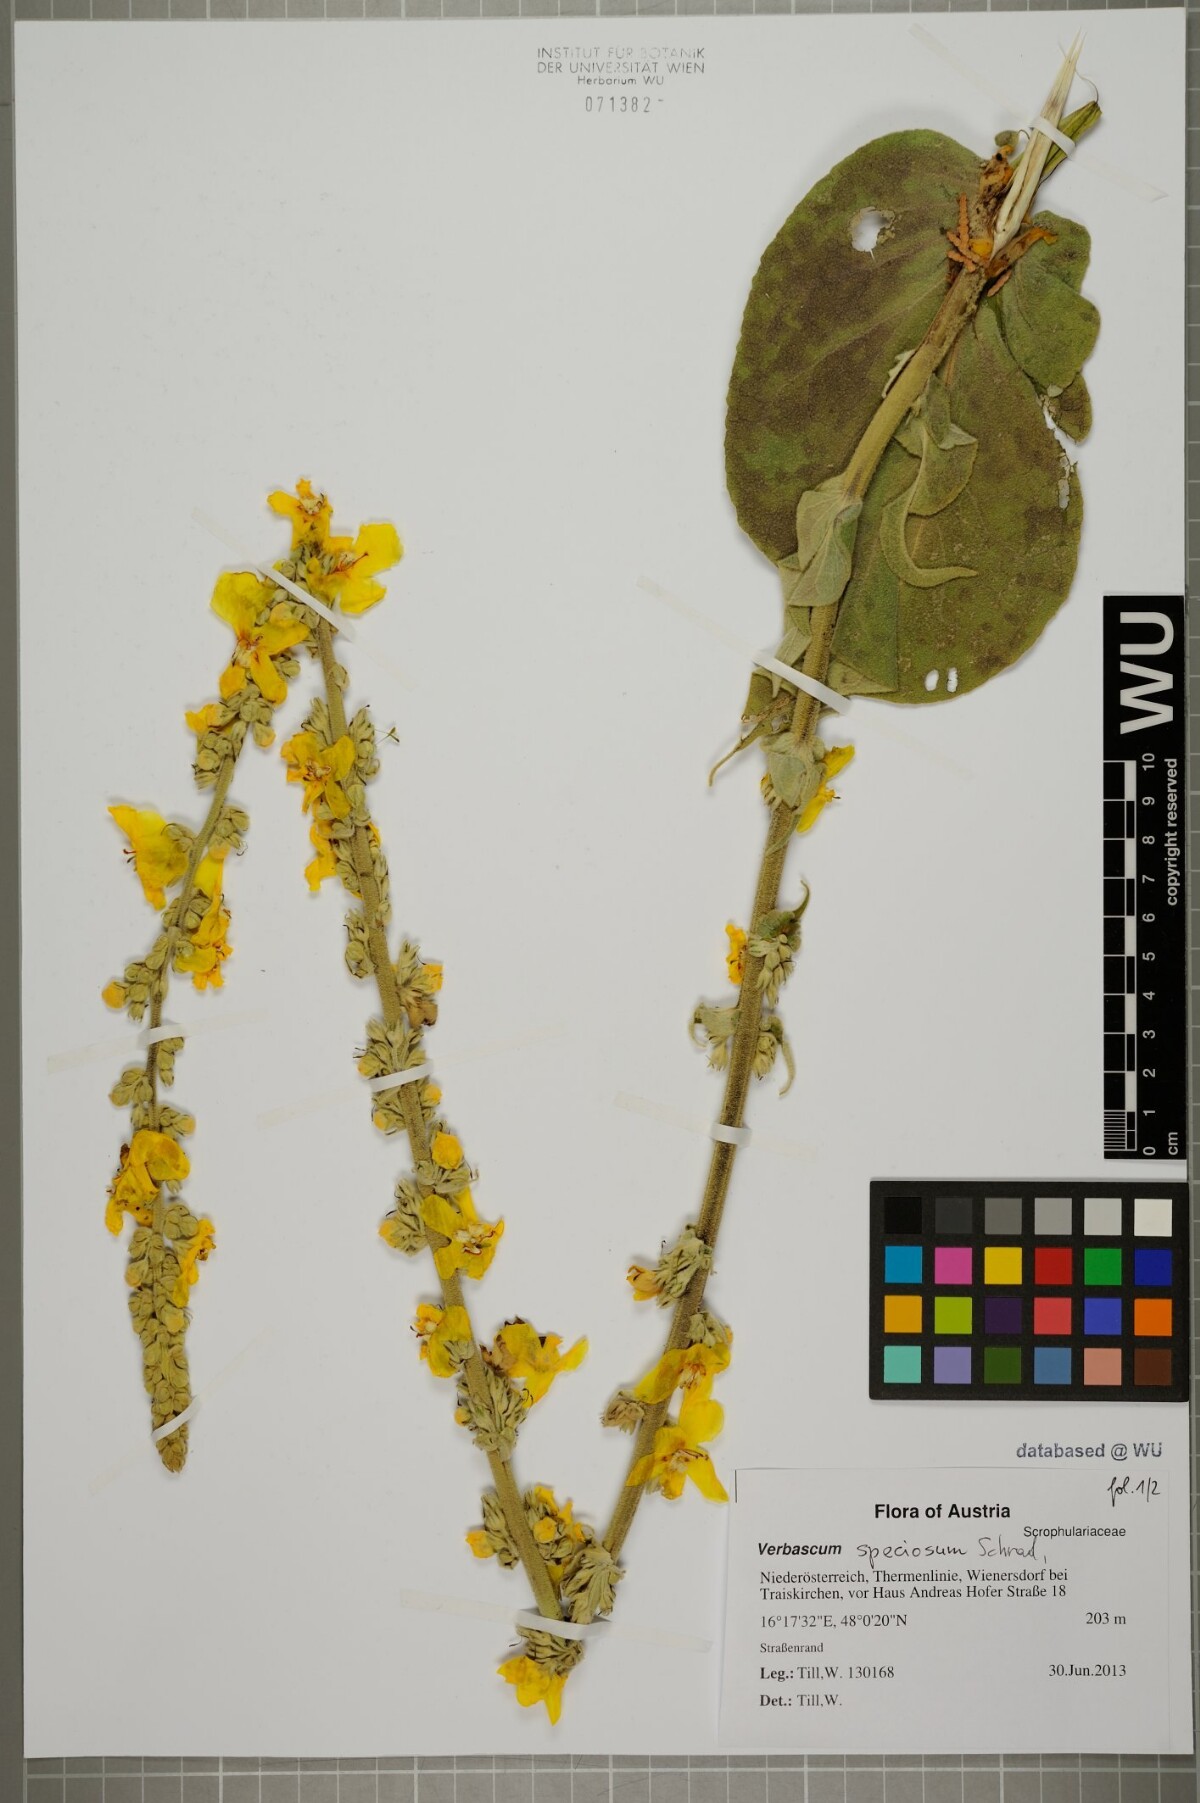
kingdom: Plantae
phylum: Tracheophyta
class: Magnoliopsida
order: Lamiales
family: Scrophulariaceae
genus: Verbascum
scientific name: Verbascum speciosum
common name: Hungarian mullein
